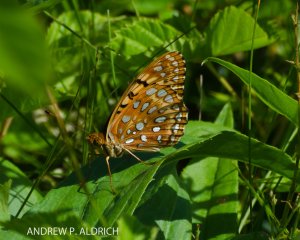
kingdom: Animalia
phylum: Arthropoda
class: Insecta
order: Lepidoptera
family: Nymphalidae
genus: Speyeria
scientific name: Speyeria
